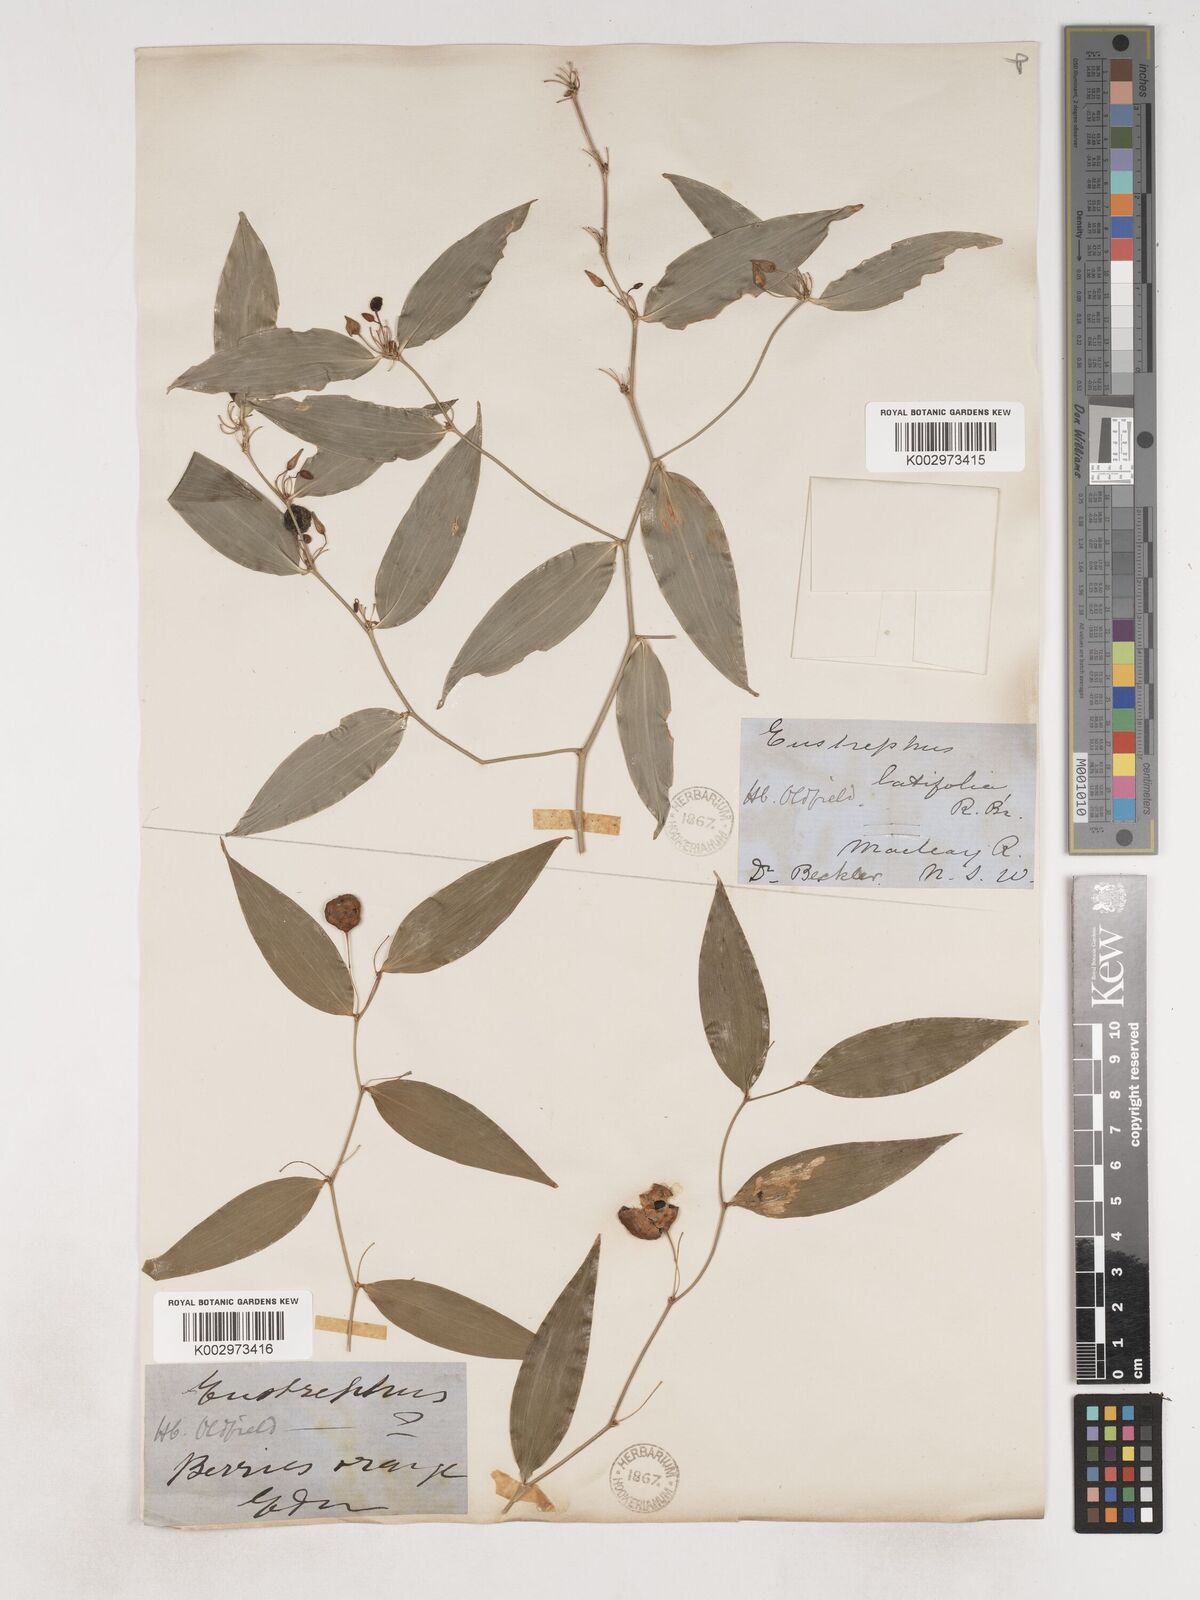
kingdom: Plantae
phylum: Tracheophyta
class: Liliopsida
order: Asparagales
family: Asparagaceae
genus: Eustrephus
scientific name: Eustrephus latifolius
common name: Orangevine
